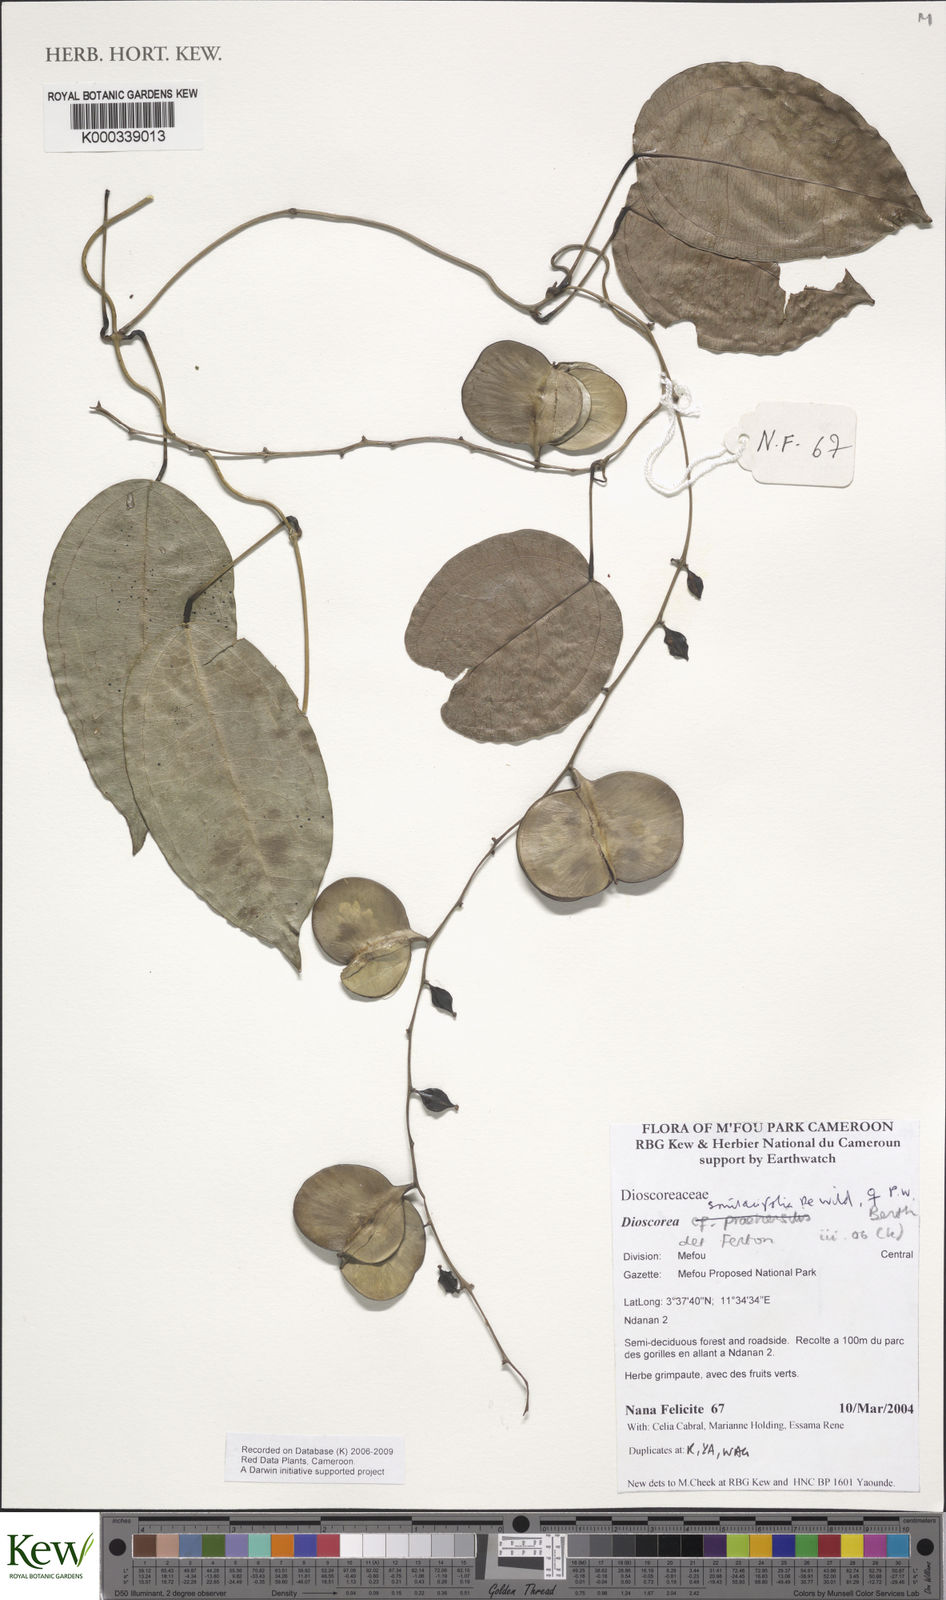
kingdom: Plantae
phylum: Tracheophyta
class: Liliopsida
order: Dioscoreales
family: Dioscoreaceae
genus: Dioscorea
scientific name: Dioscorea smilacifolia
